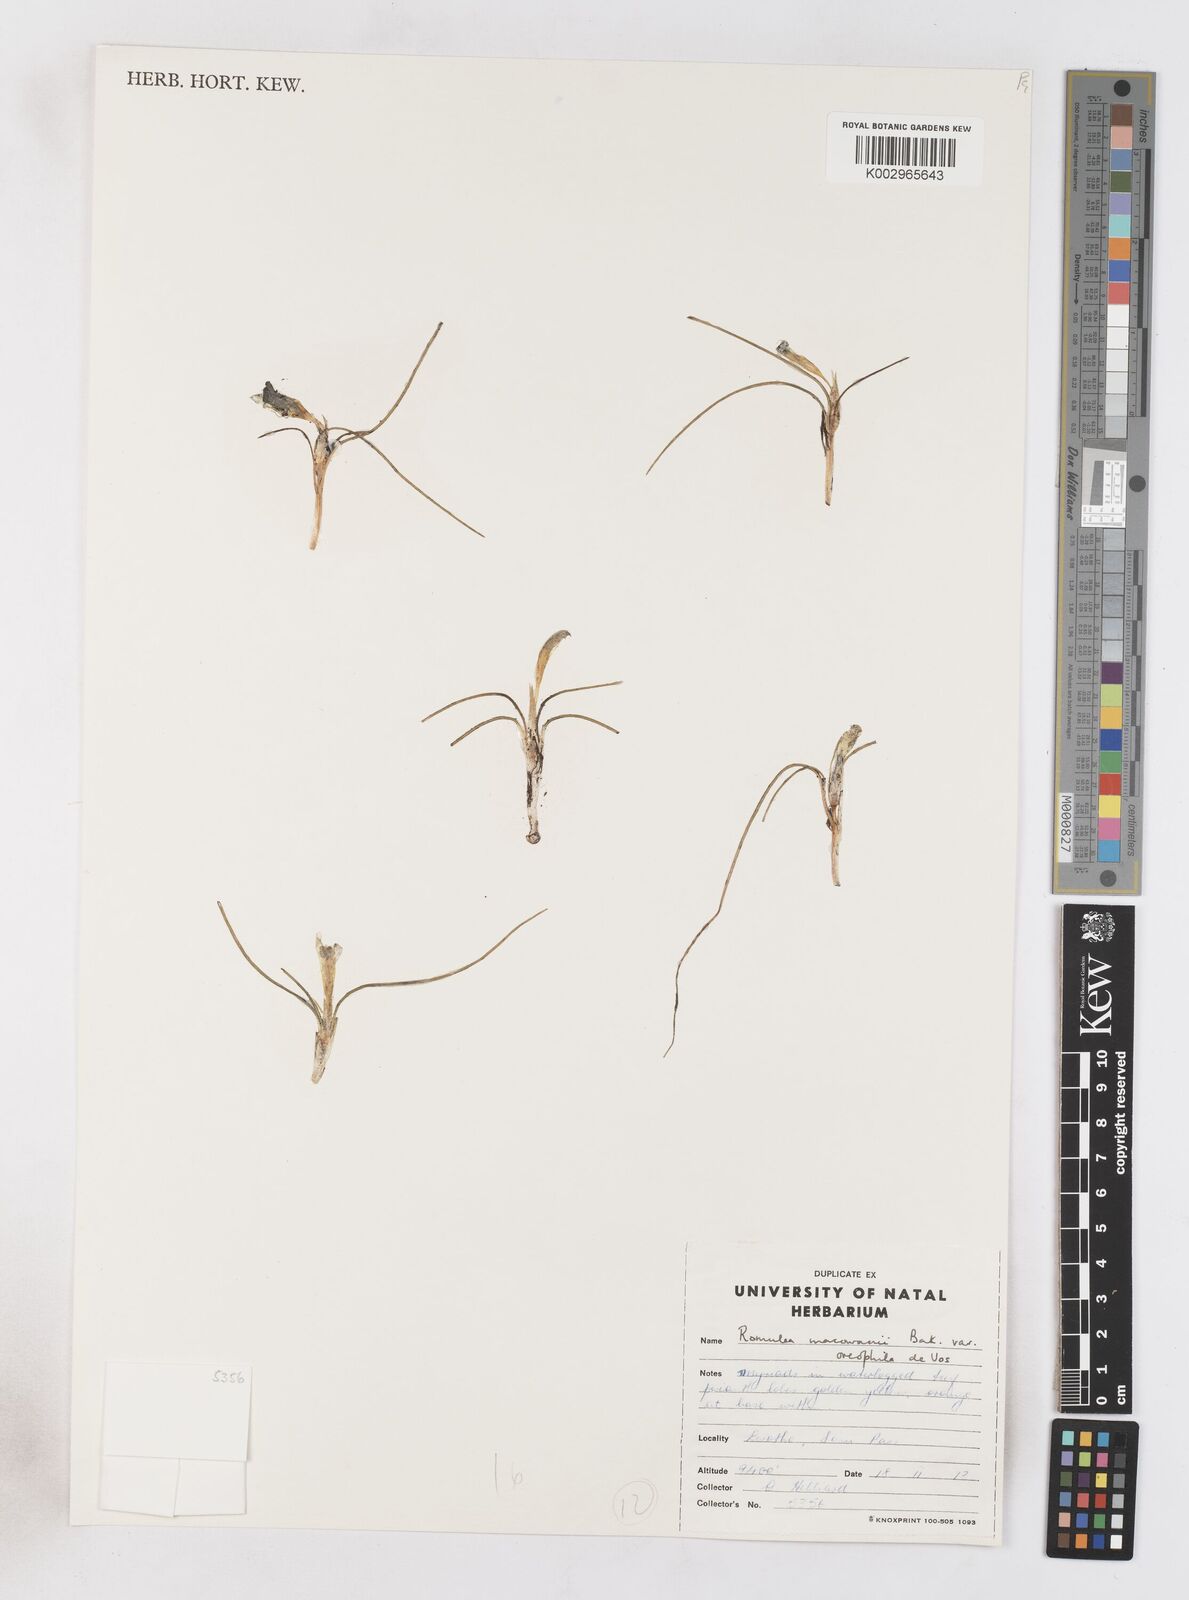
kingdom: Plantae
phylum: Tracheophyta
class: Liliopsida
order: Asparagales
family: Iridaceae
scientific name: Iridaceae
